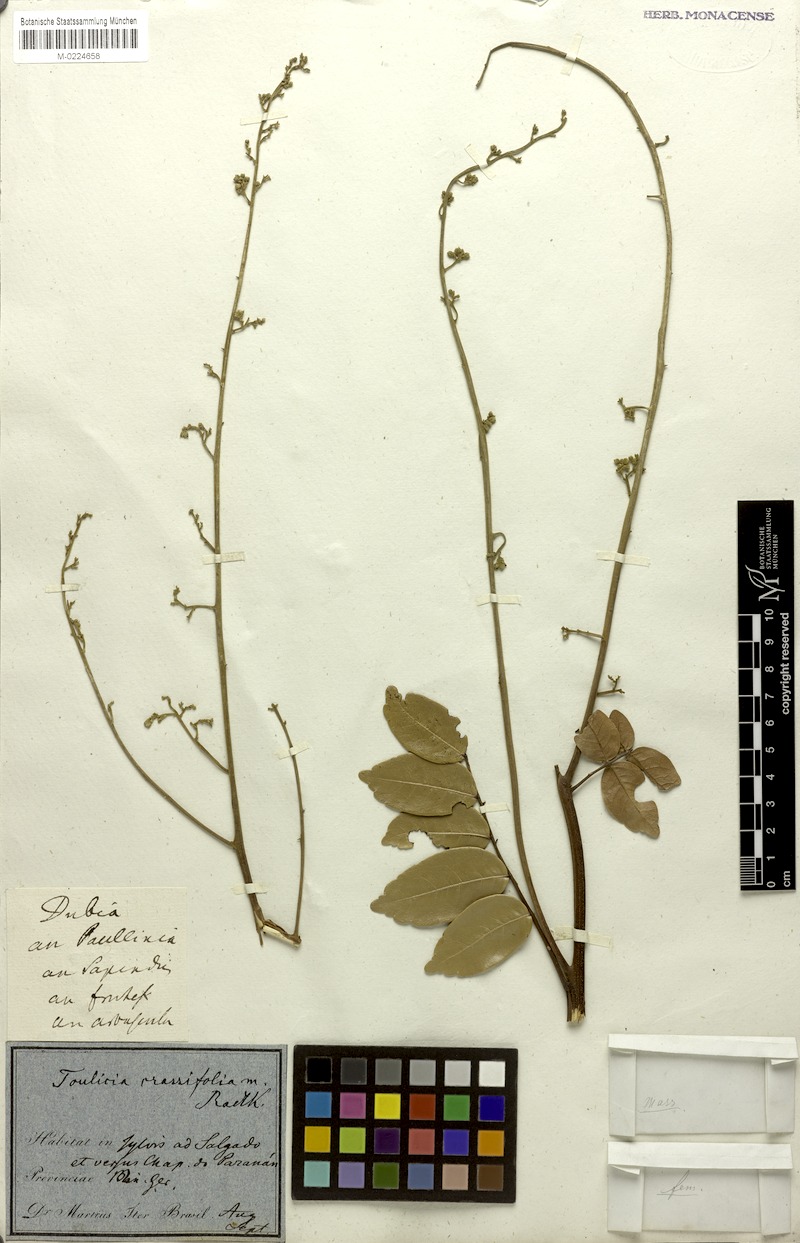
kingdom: Plantae
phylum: Tracheophyta
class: Magnoliopsida
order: Sapindales
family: Sapindaceae
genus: Toulicia
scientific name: Toulicia crassifolia
